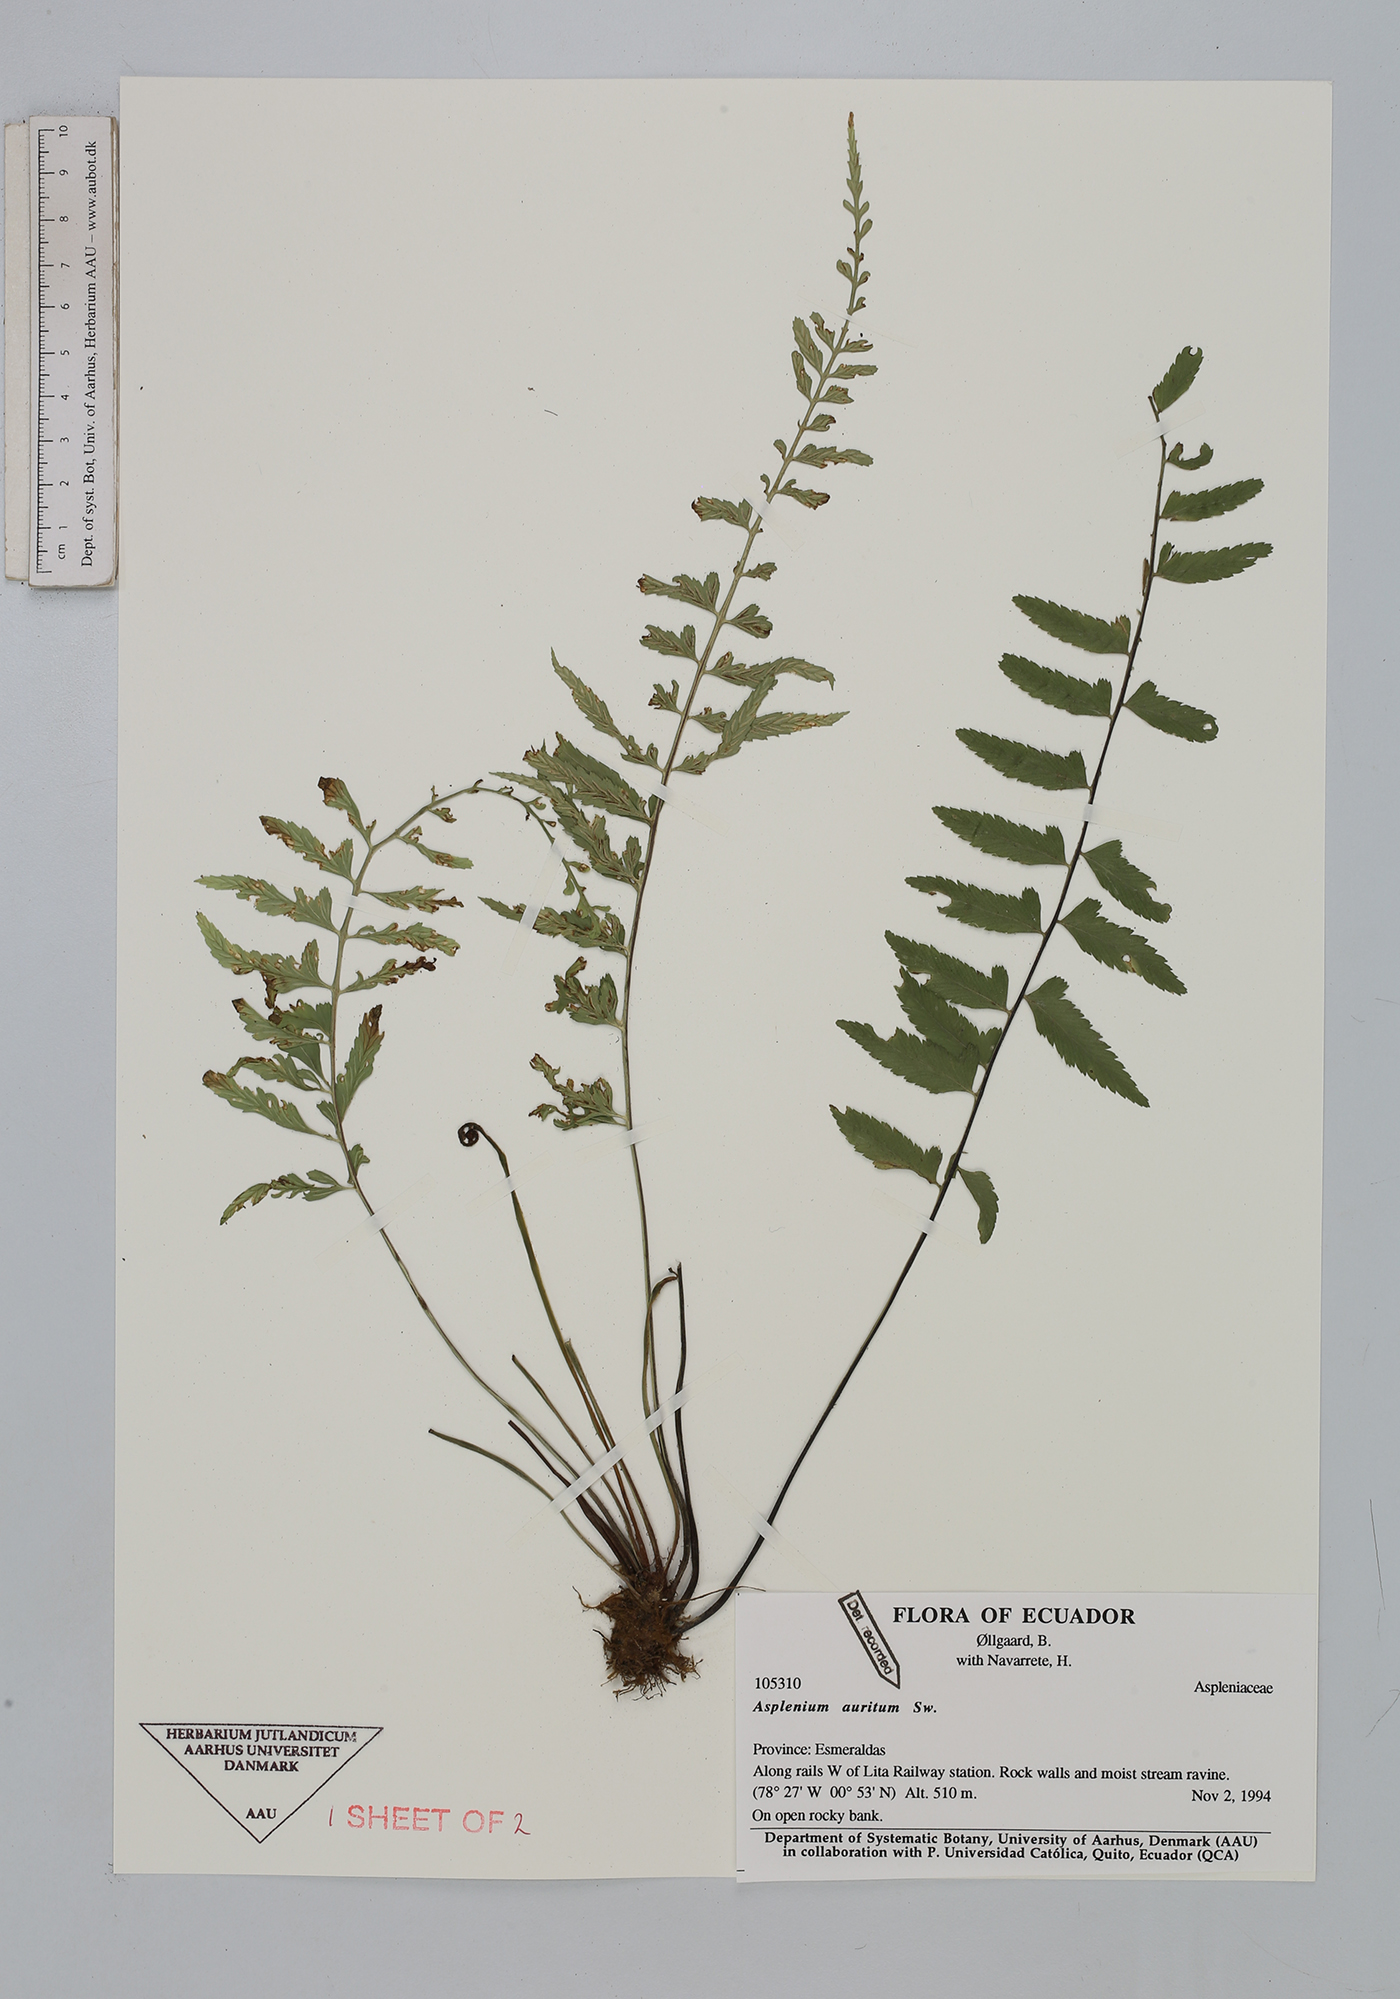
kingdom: Plantae
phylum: Tracheophyta
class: Polypodiopsida
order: Polypodiales
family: Aspleniaceae
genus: Asplenium
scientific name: Asplenium auritum
